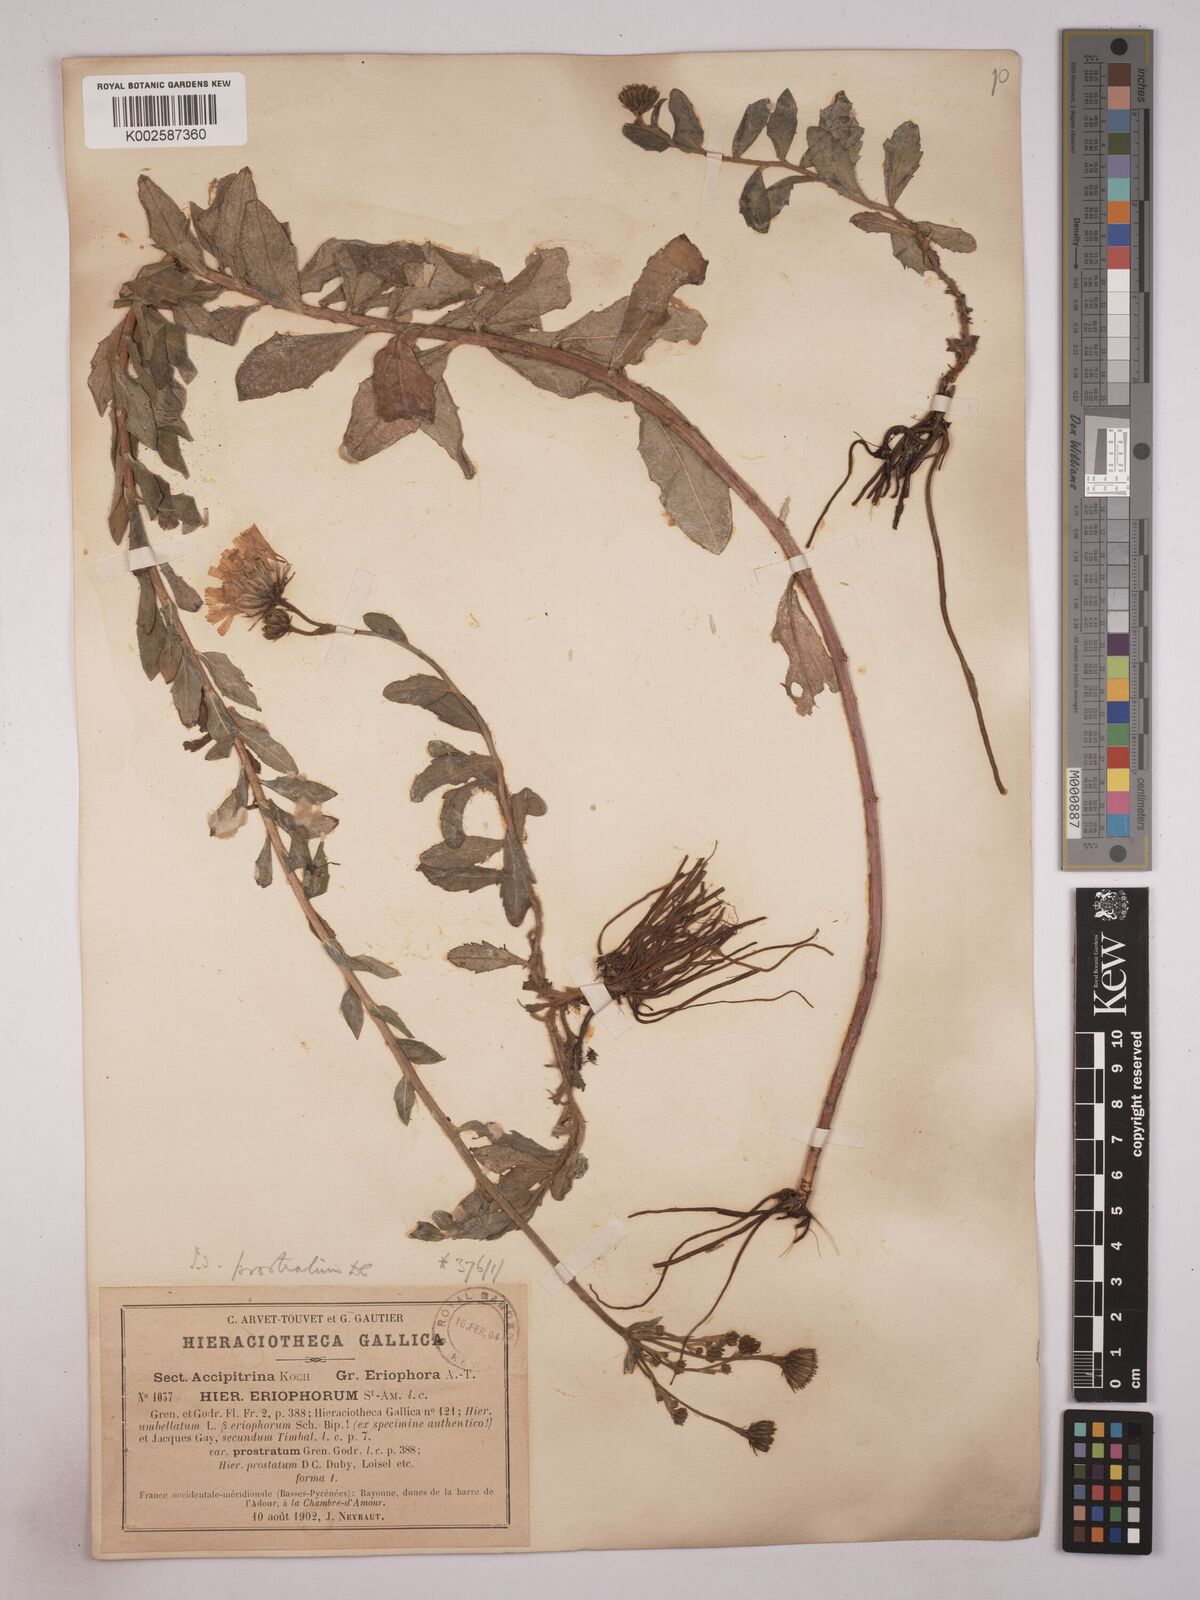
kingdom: Plantae
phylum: Tracheophyta
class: Magnoliopsida
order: Asterales
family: Asteraceae
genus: Hieracium
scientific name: Hieracium prostratum
